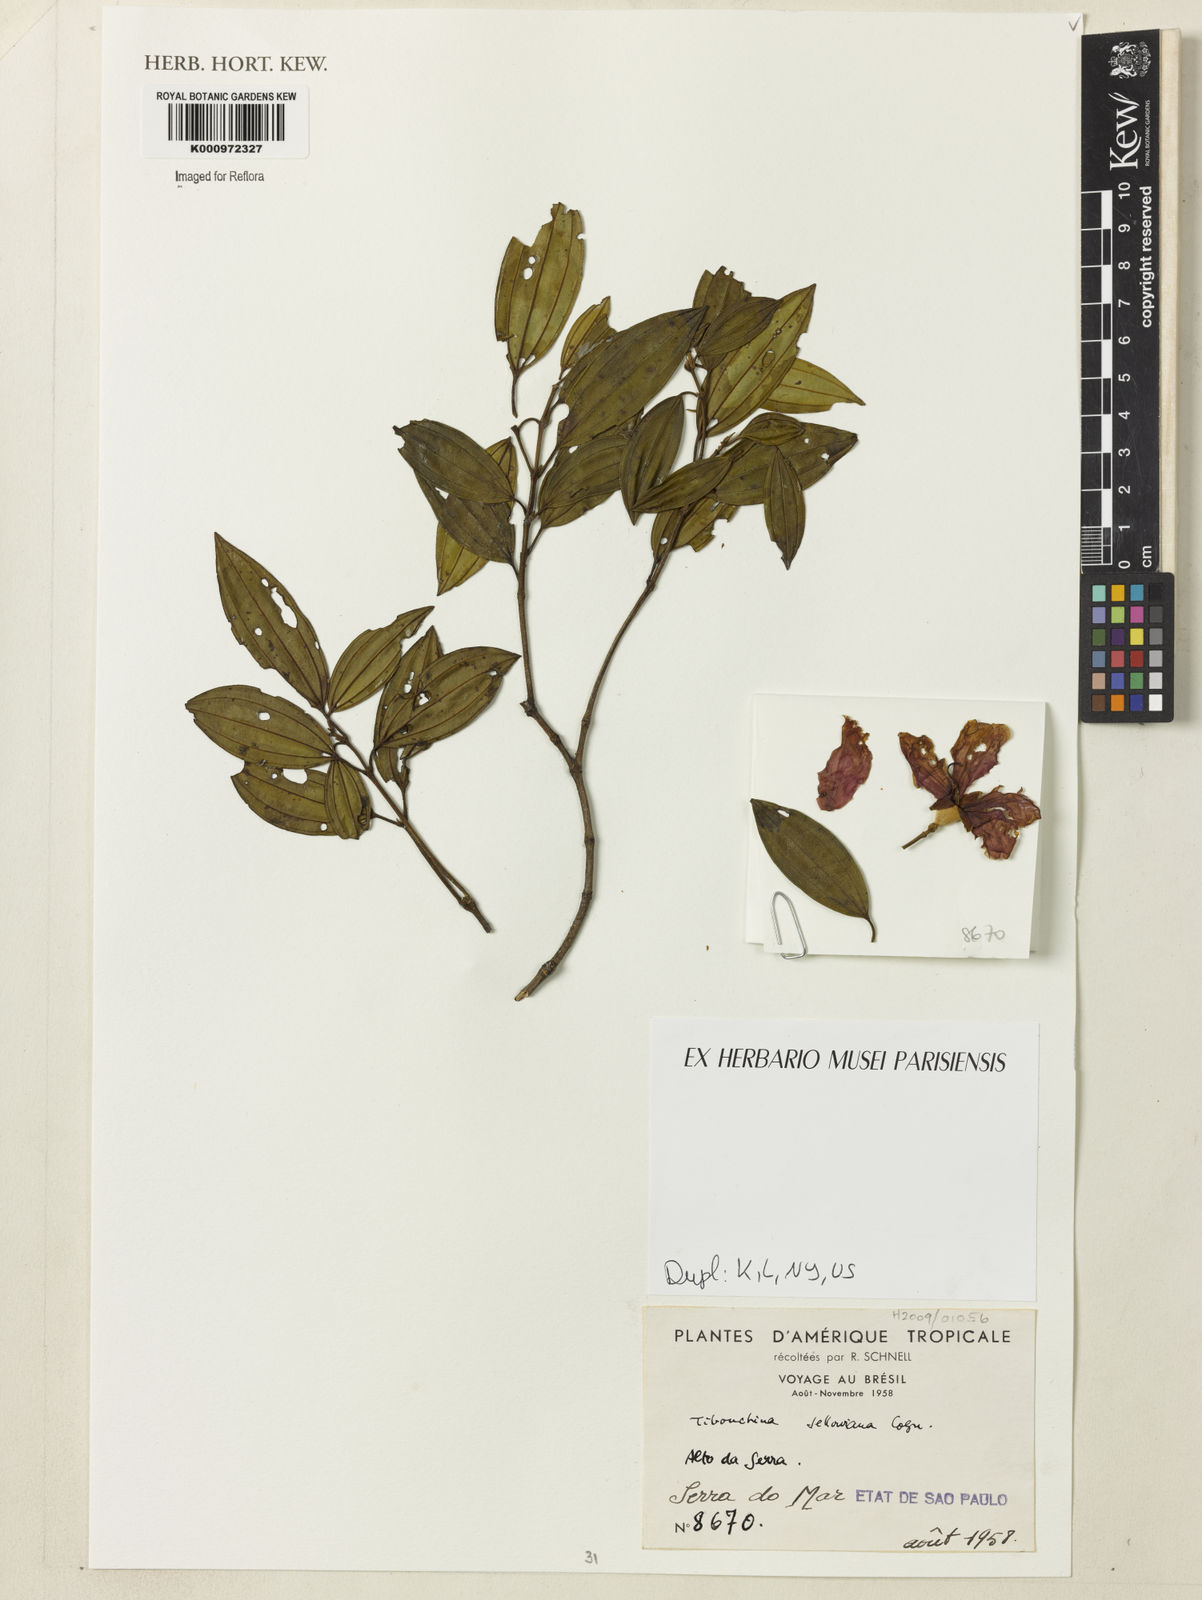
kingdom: Plantae
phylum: Tracheophyta
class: Magnoliopsida
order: Myrtales
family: Melastomataceae
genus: Pleroma
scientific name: Pleroma sellowianum
